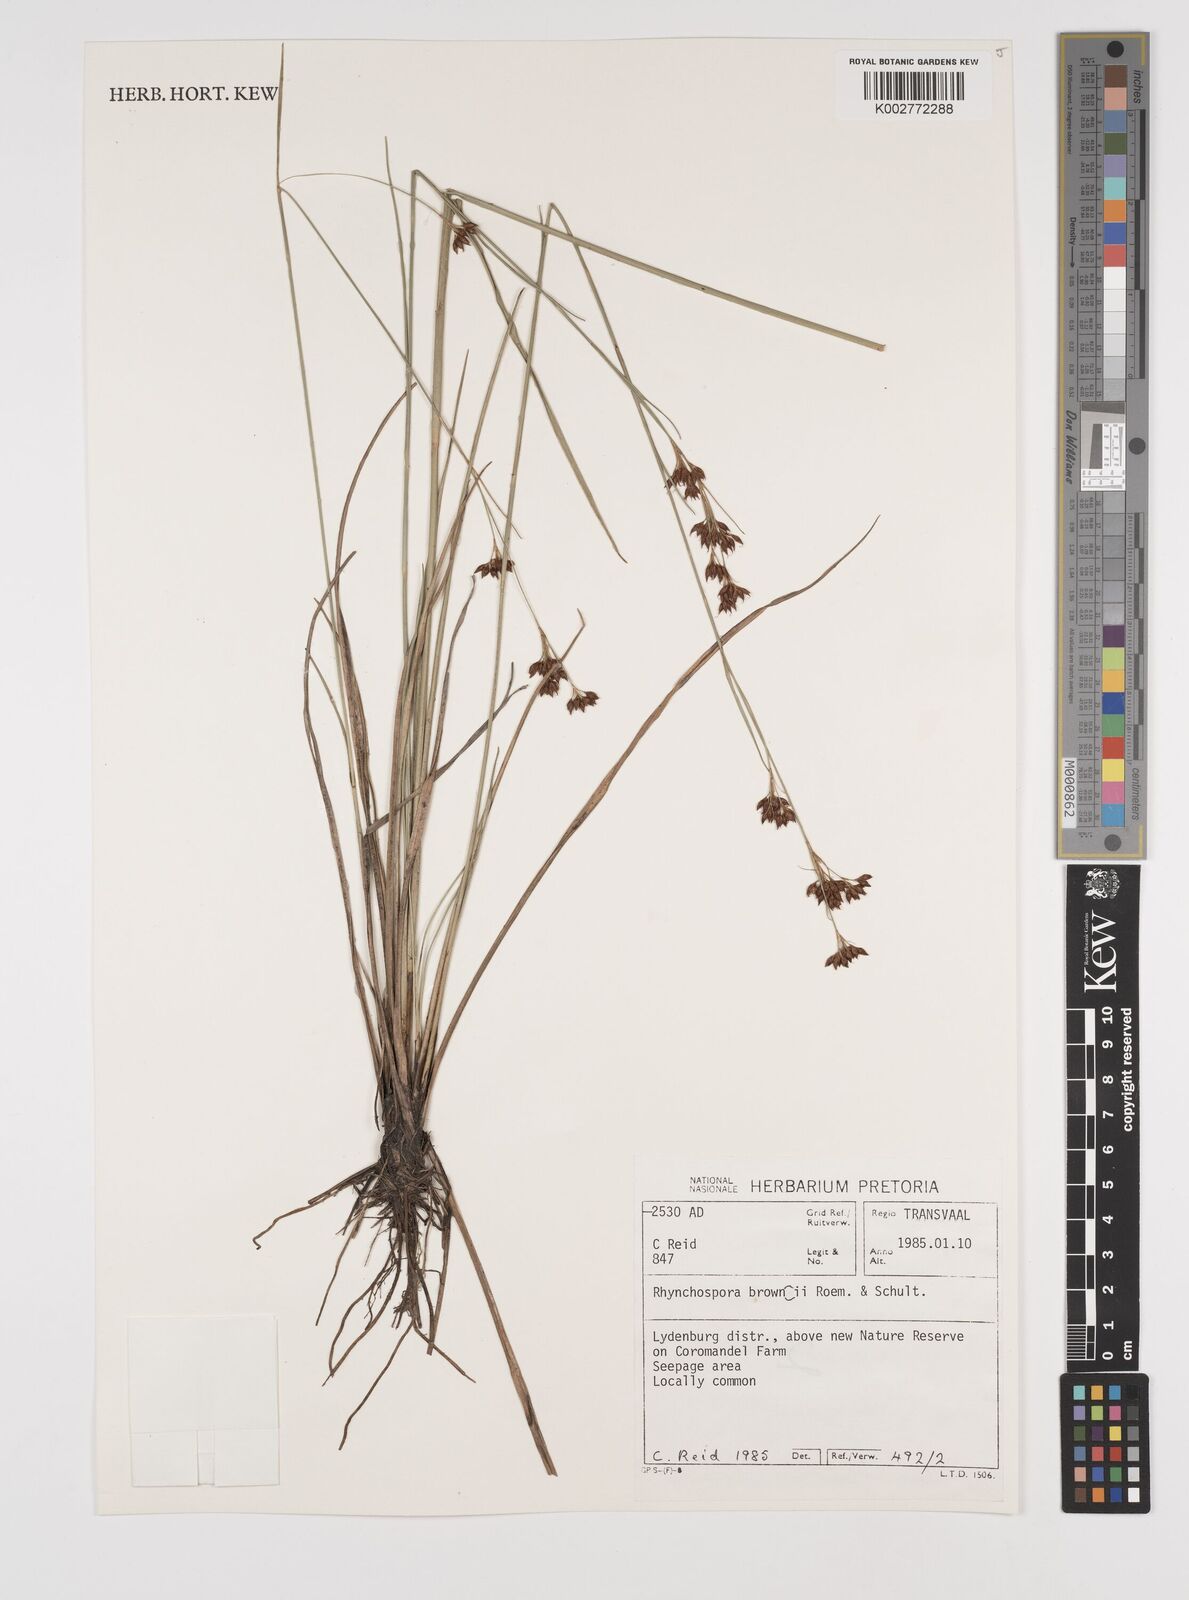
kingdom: Plantae
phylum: Tracheophyta
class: Liliopsida
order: Poales
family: Cyperaceae
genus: Rhynchospora
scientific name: Rhynchospora rugosa
